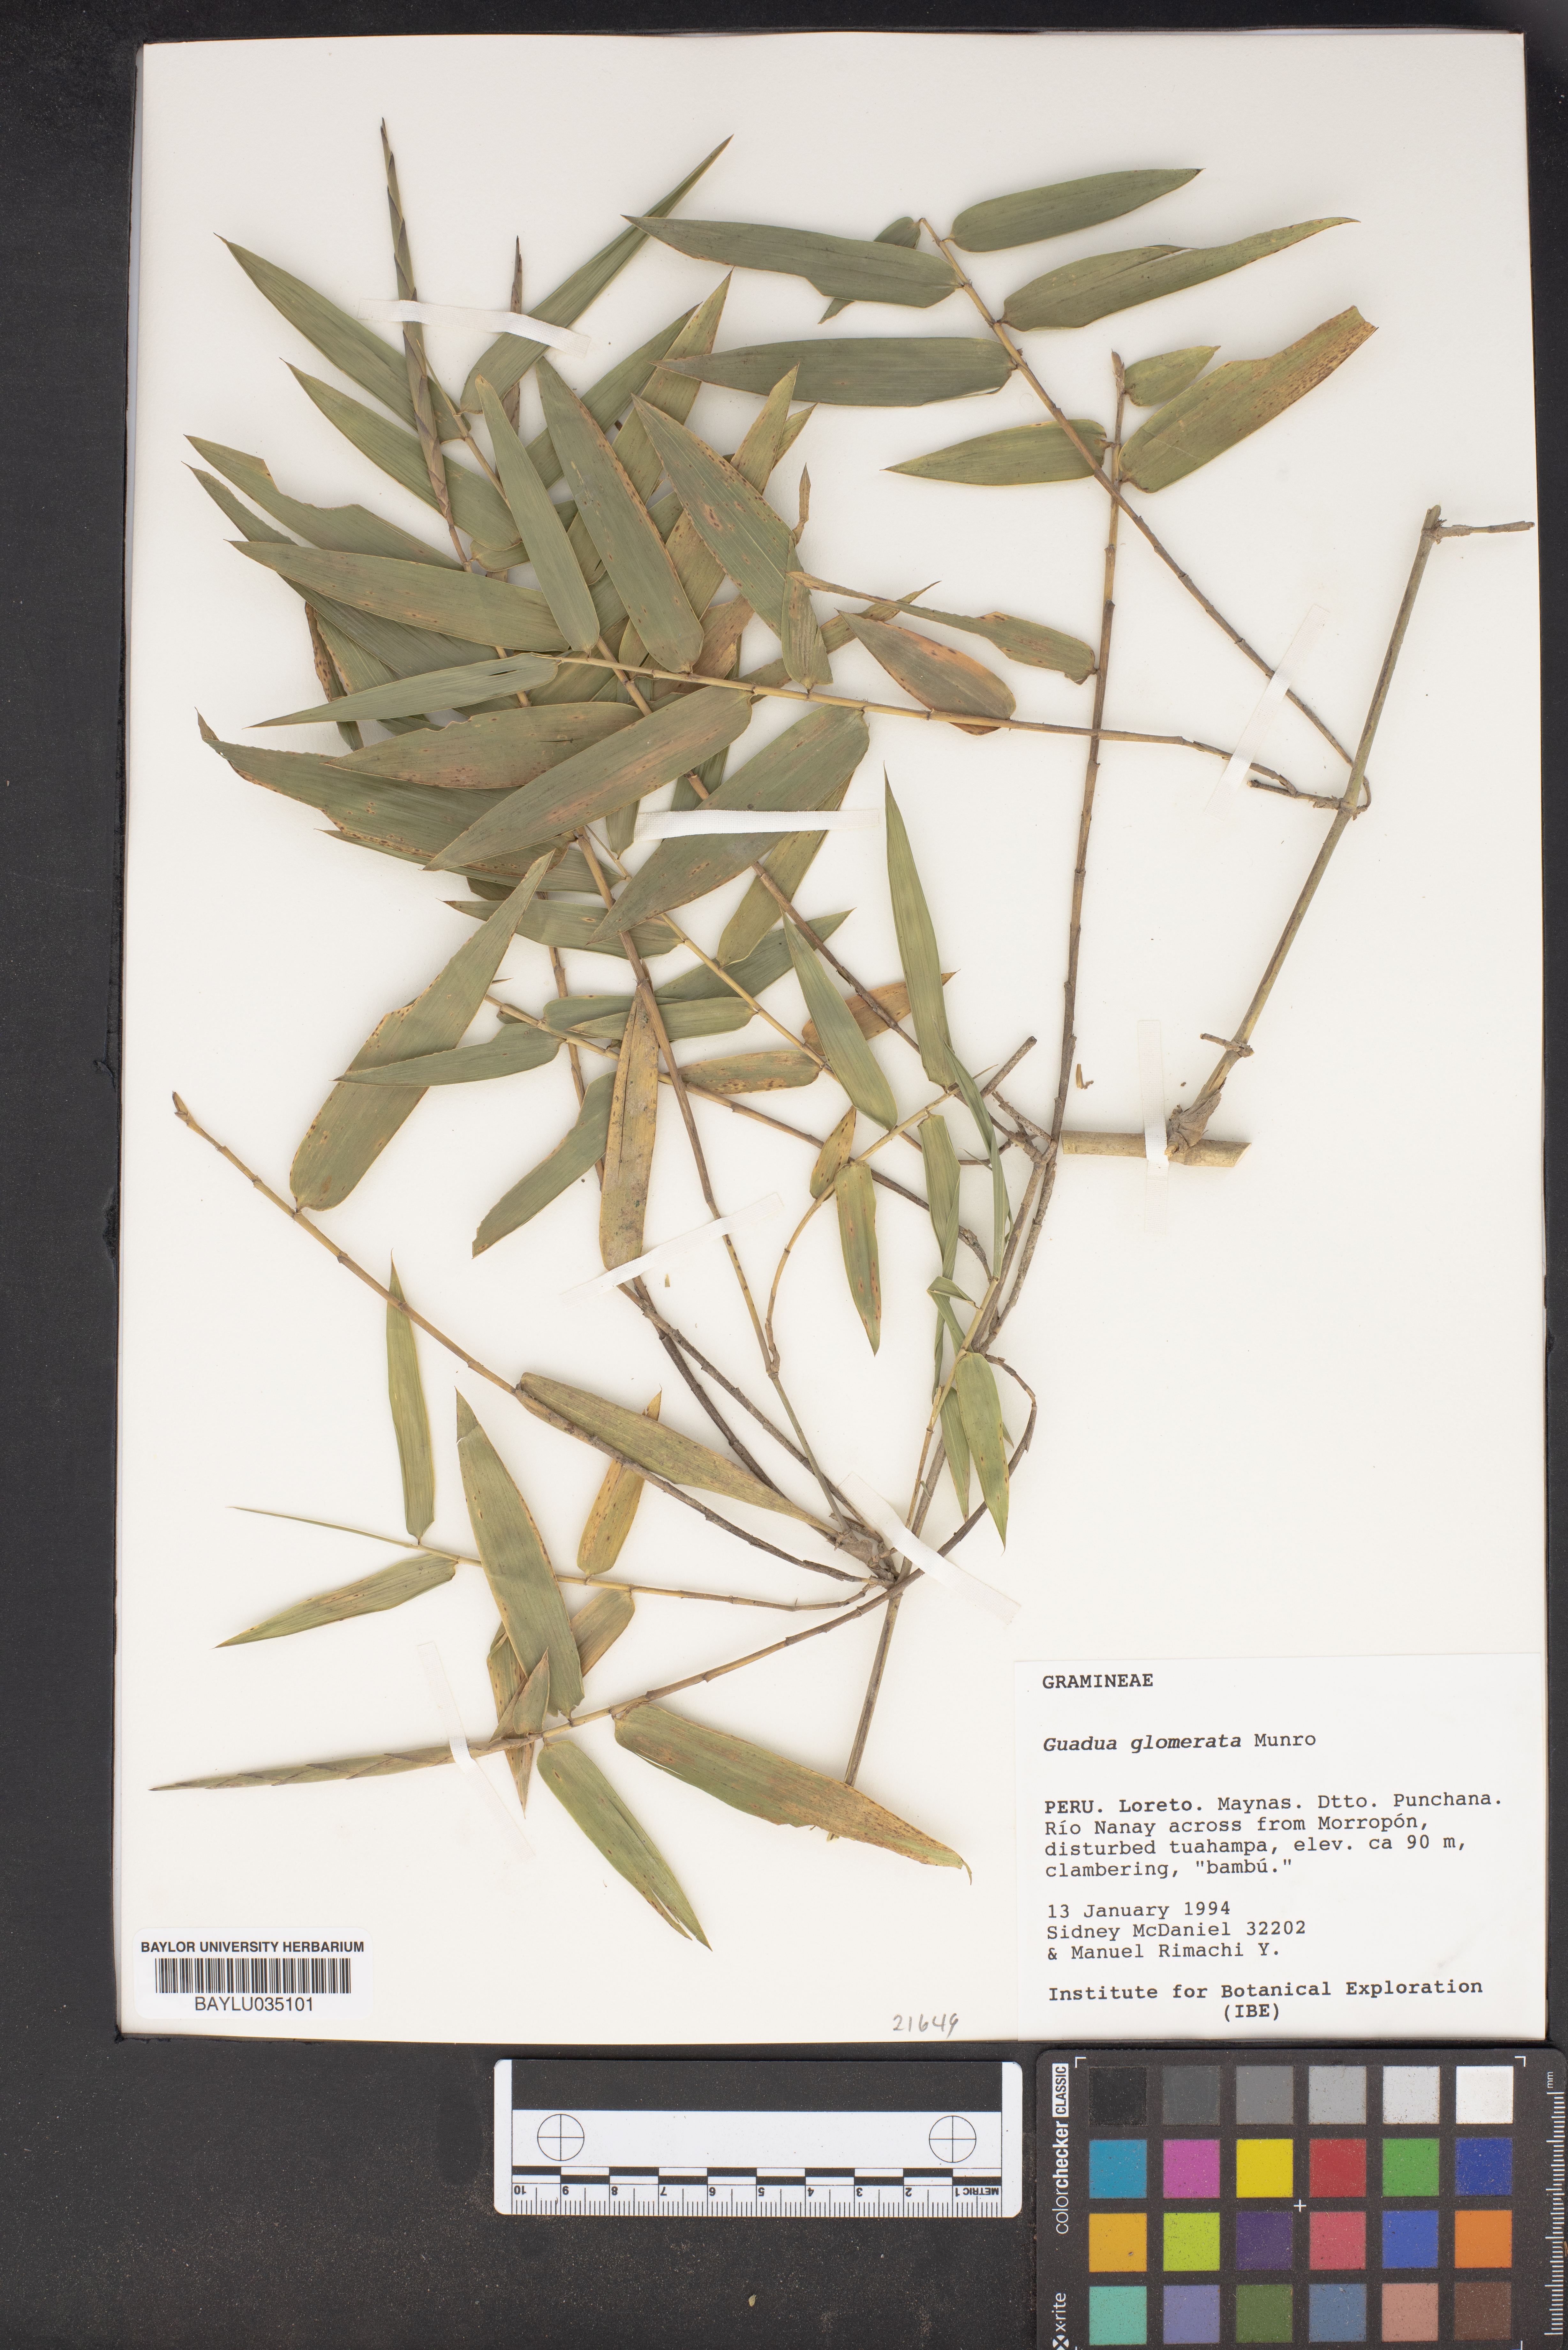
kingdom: Plantae
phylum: Tracheophyta
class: Liliopsida
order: Poales
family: Poaceae
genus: Guadua
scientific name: Guadua glomerata
